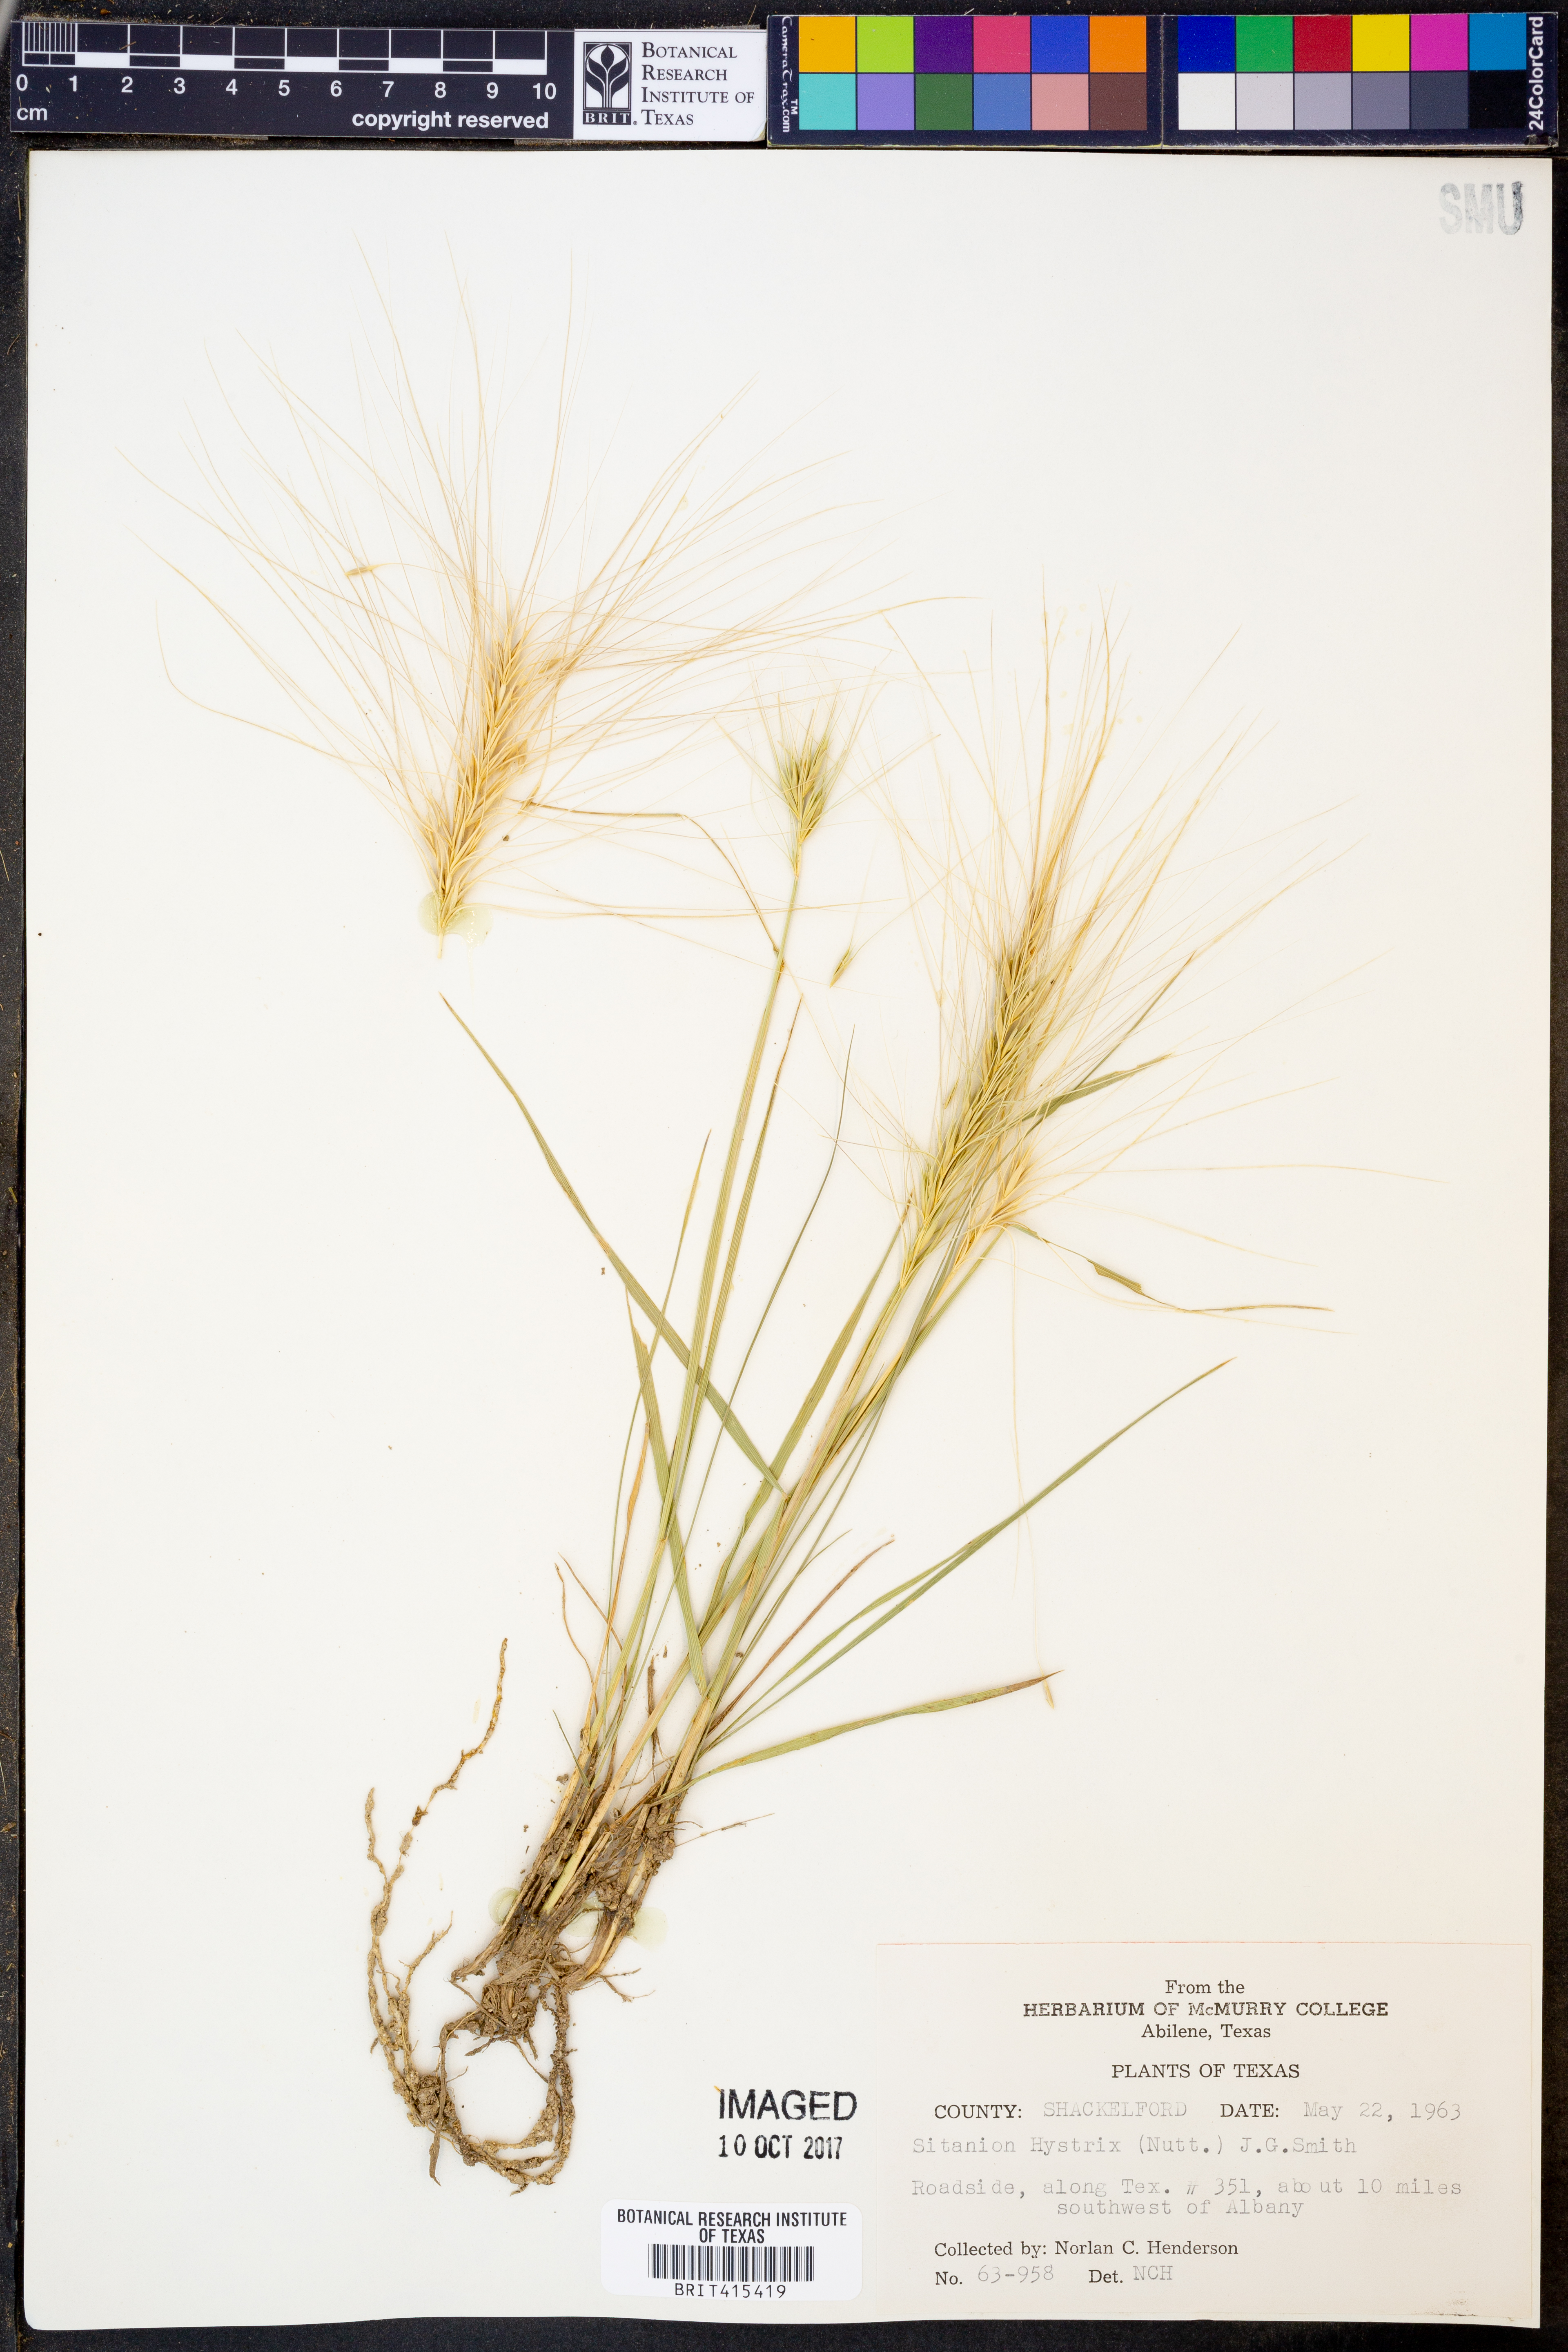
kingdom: Plantae
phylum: Tracheophyta
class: Liliopsida
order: Poales
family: Poaceae
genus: Elymus
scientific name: Elymus elymoides
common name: Bottlebrush squirreltail
